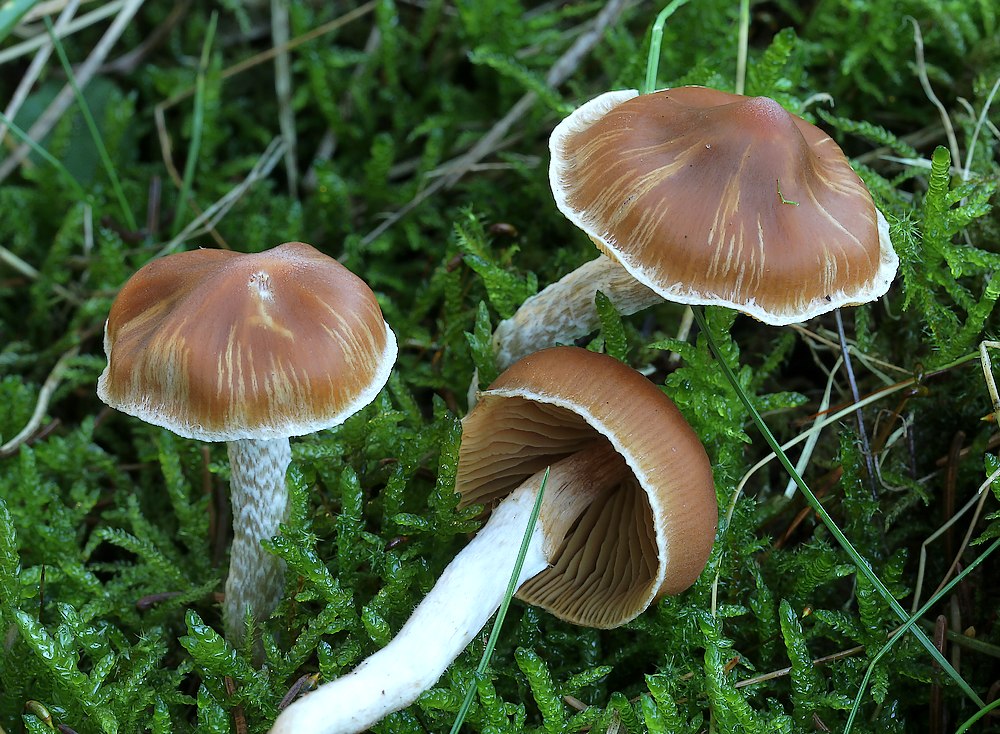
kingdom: Fungi
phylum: Basidiomycota
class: Agaricomycetes
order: Agaricales
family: Cortinariaceae
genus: Cortinarius
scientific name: Cortinarius
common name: hvidægget slørhat
